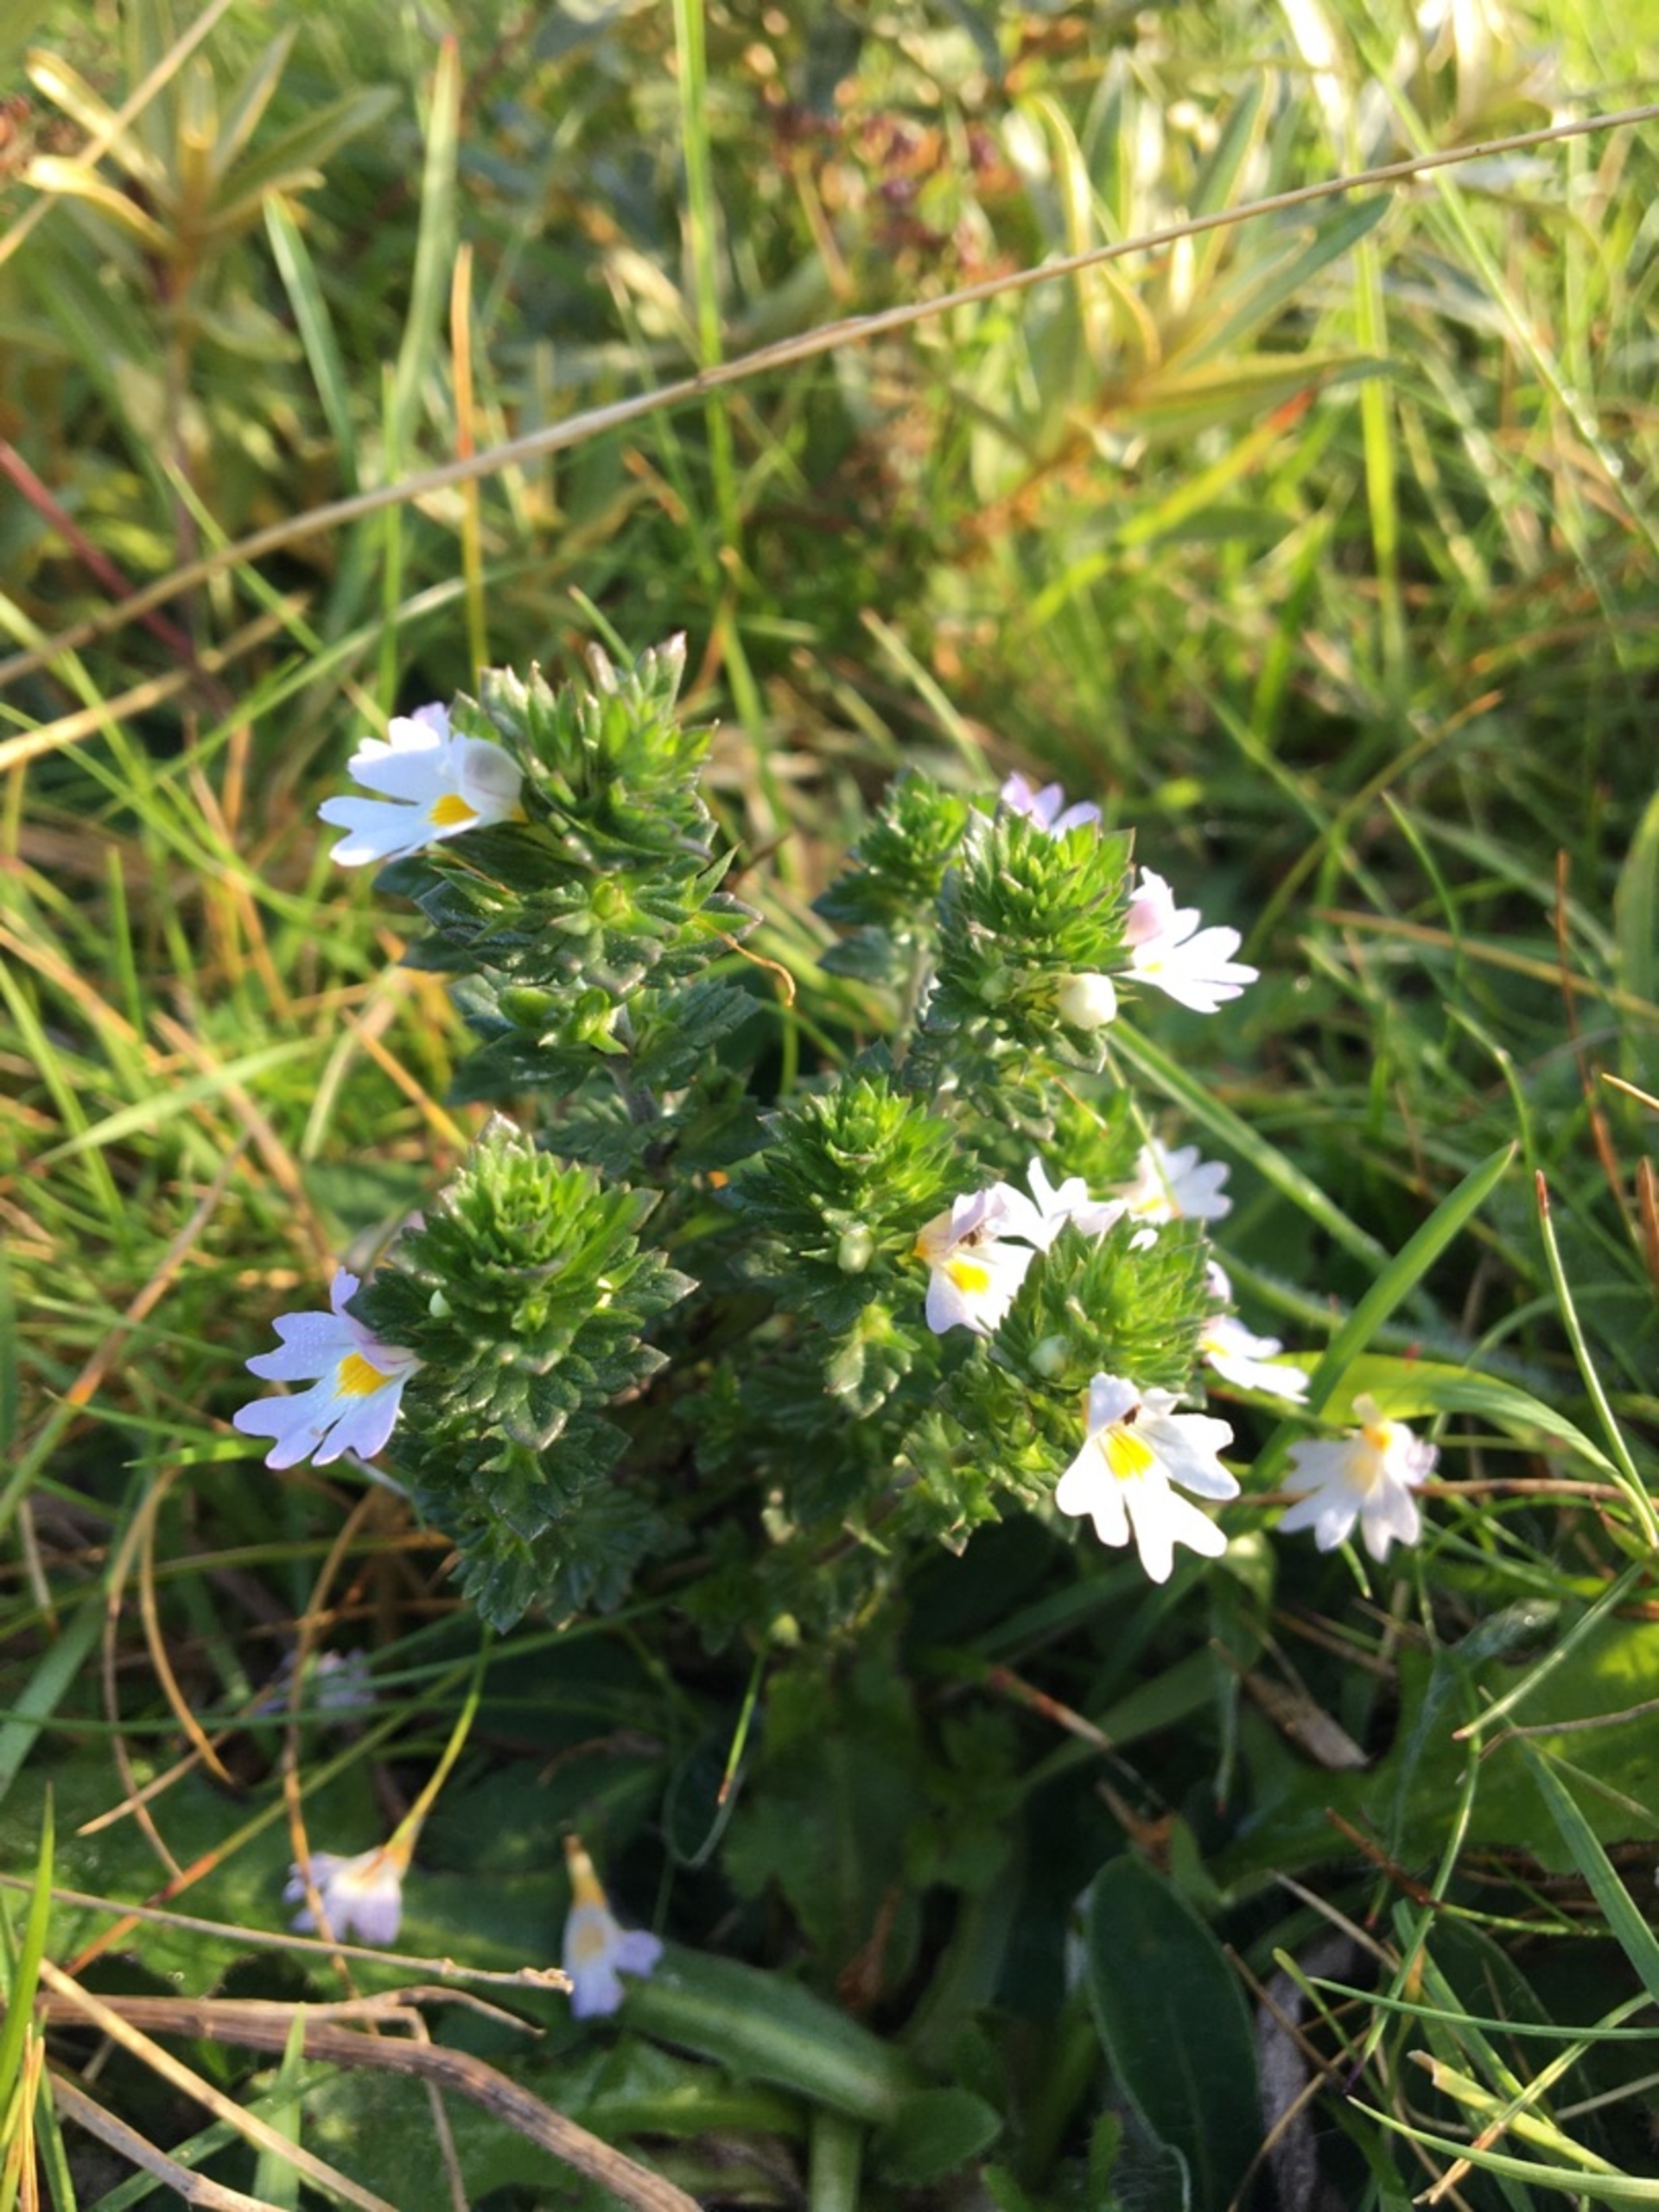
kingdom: Plantae
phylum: Tracheophyta
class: Magnoliopsida
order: Lamiales
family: Orobanchaceae
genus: Euphrasia
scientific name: Euphrasia nemorosa
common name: Kort øjentrøst
